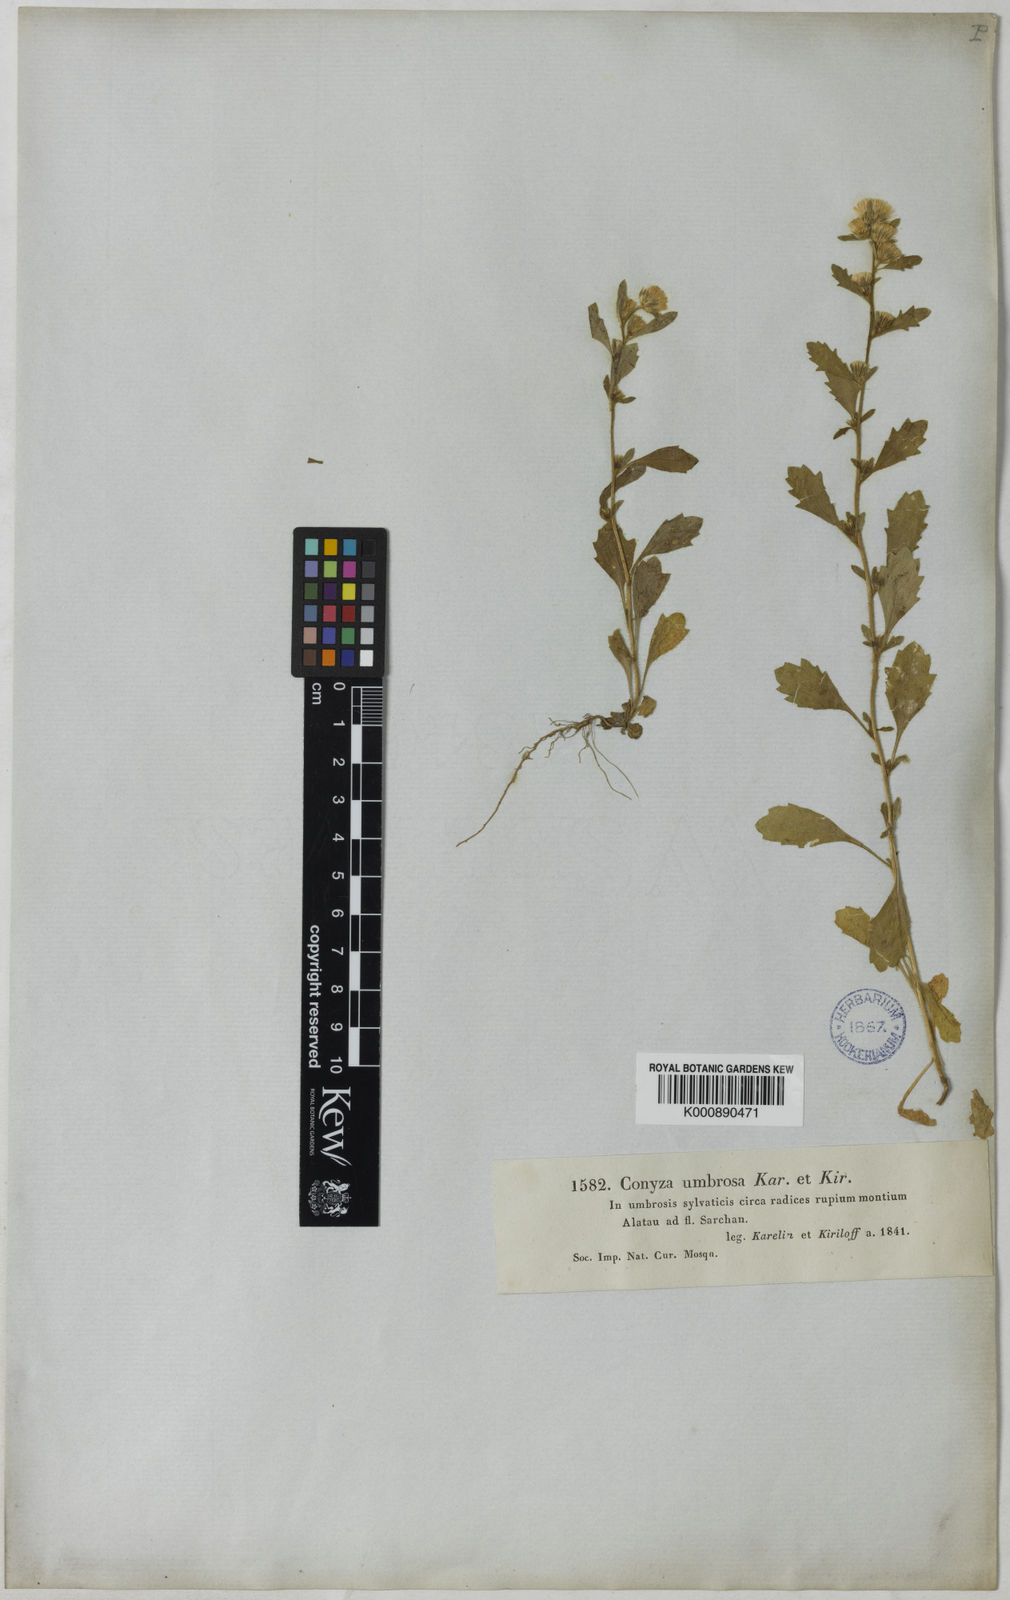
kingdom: Plantae
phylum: Tracheophyta
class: Magnoliopsida
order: Asterales
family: Asteraceae
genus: Neobrachyactis
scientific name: Neobrachyactis roylei
